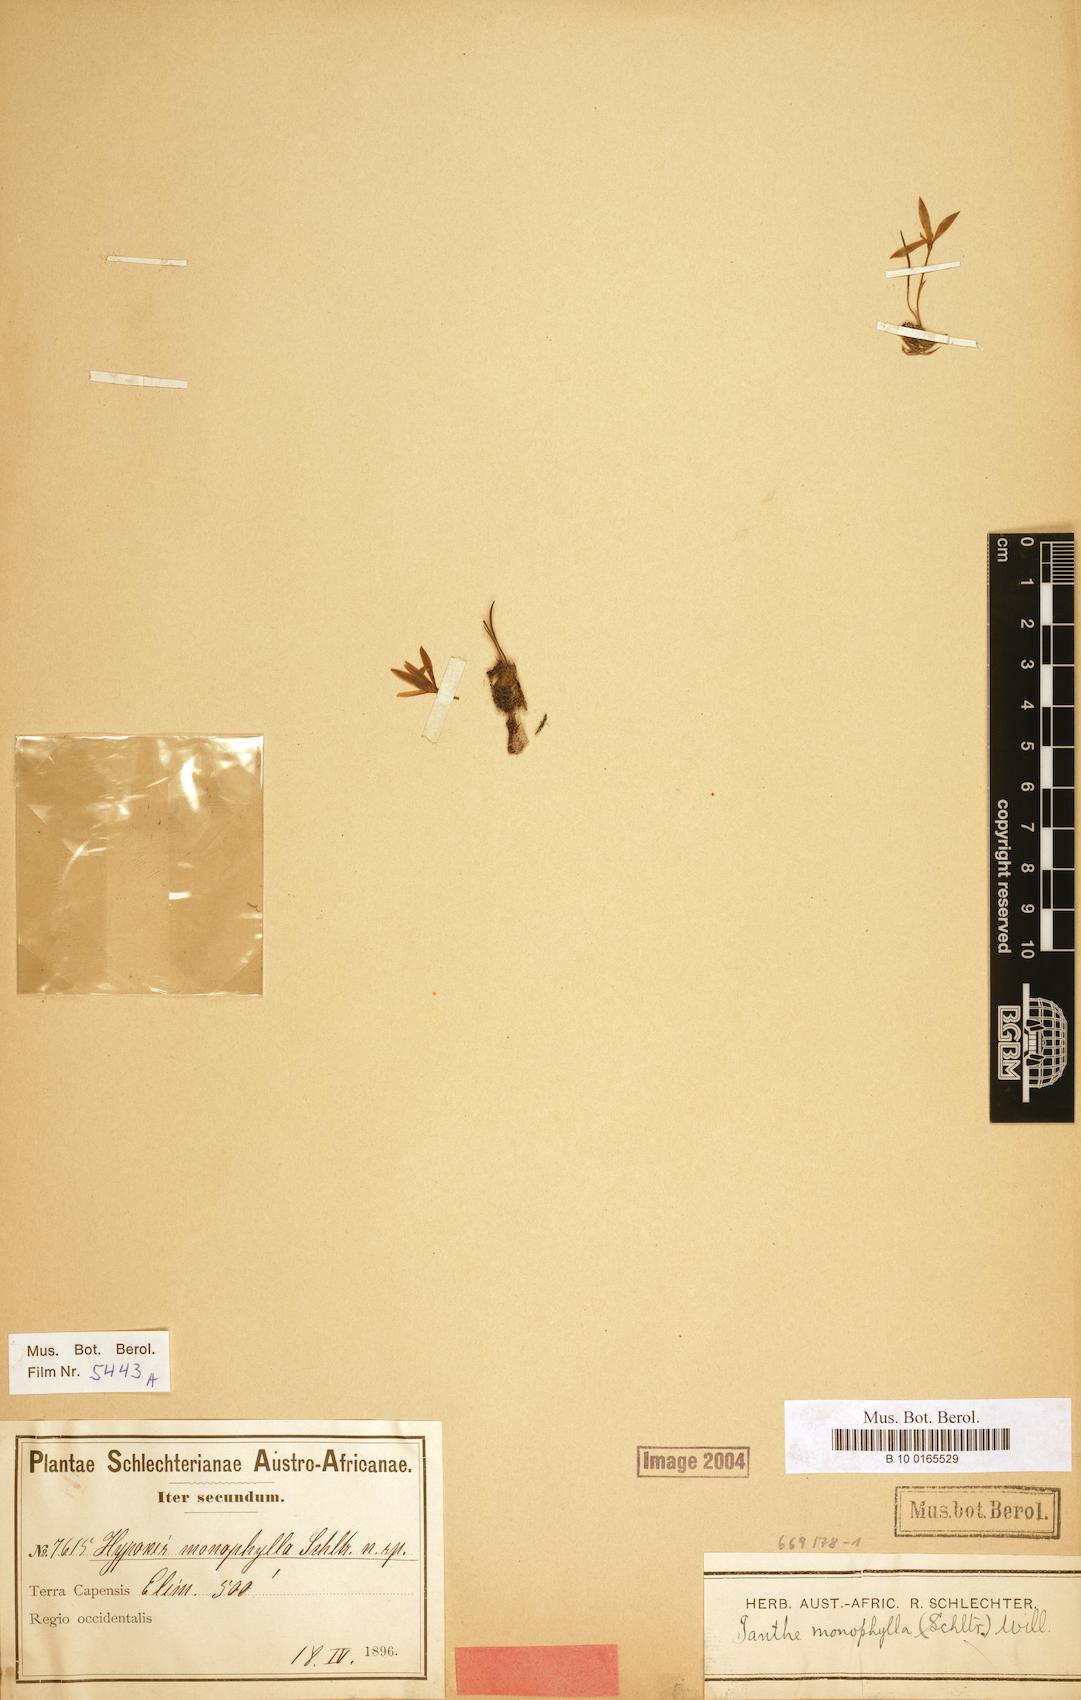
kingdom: Plantae
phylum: Tracheophyta
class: Liliopsida
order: Asparagales
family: Hypoxidaceae
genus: Pauridia
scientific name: Pauridia monophylla
